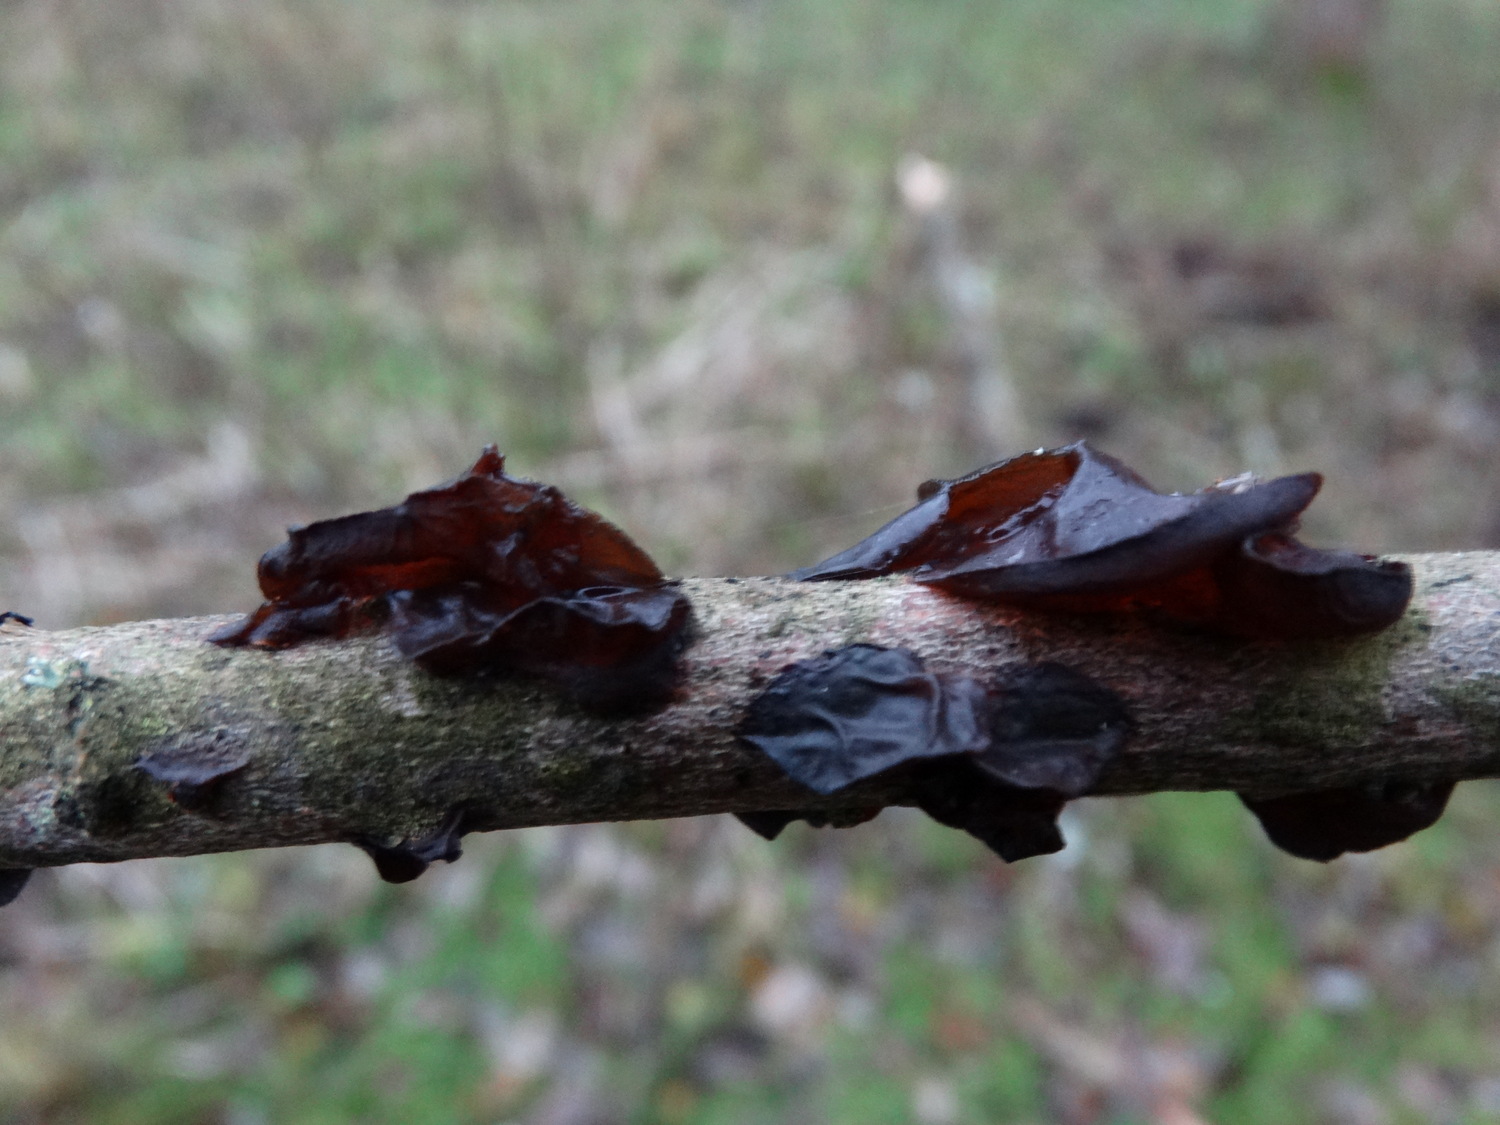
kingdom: Fungi
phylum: Basidiomycota
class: Agaricomycetes
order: Auriculariales
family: Auriculariaceae
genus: Exidia
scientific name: Exidia recisa
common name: pile-bævretop
